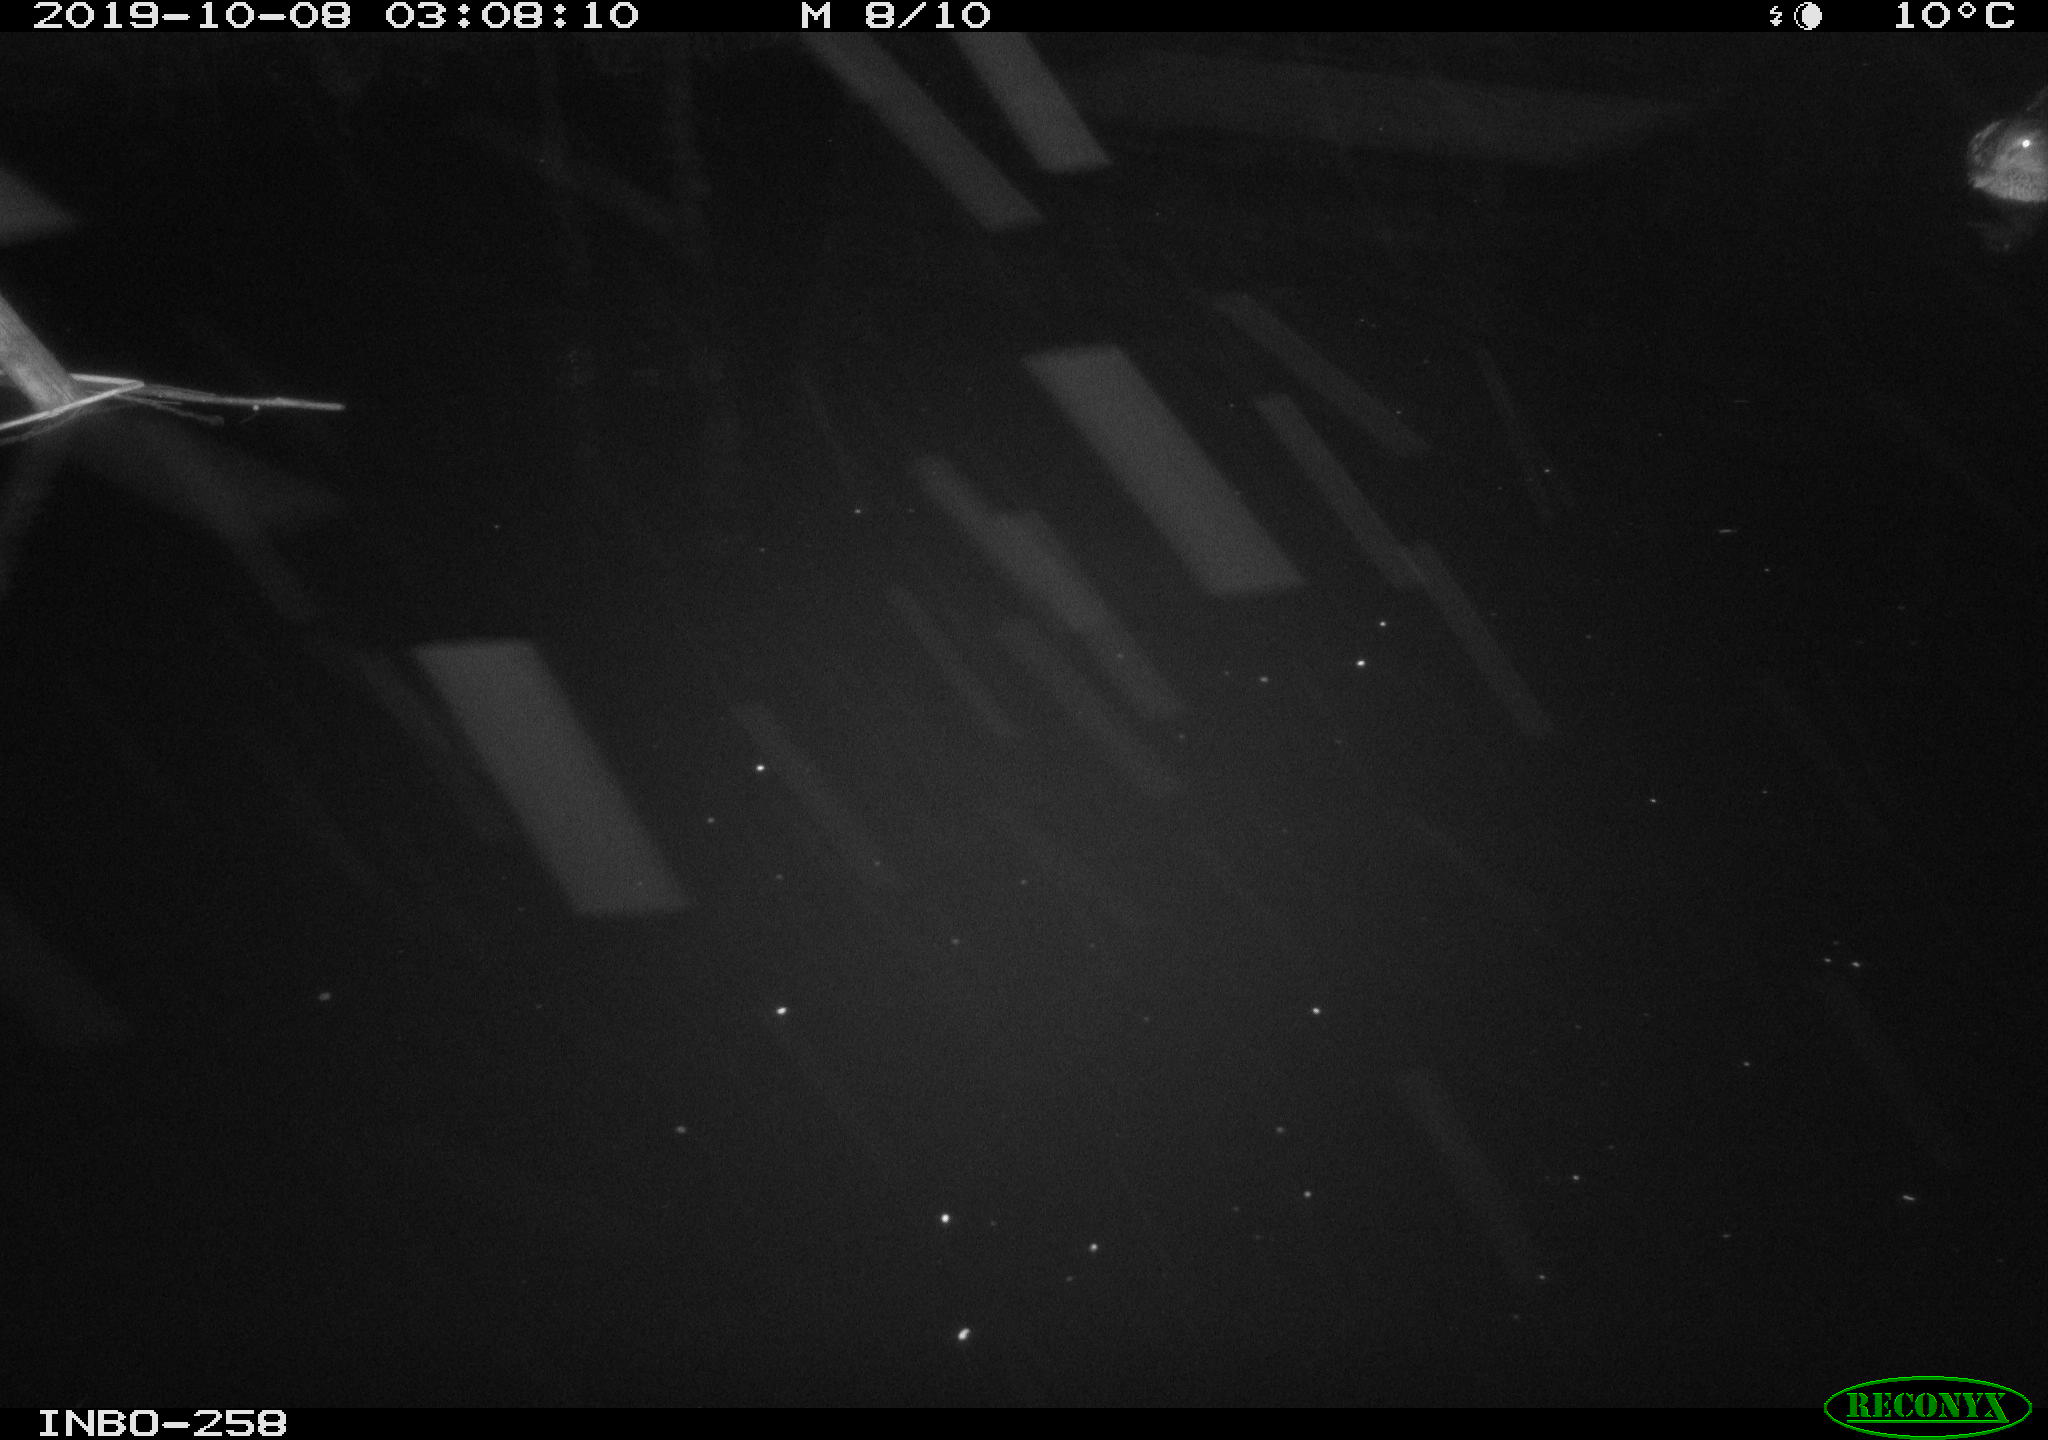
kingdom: Animalia
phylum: Chordata
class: Aves
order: Anseriformes
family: Anatidae
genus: Anas
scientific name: Anas platyrhynchos
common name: Mallard
